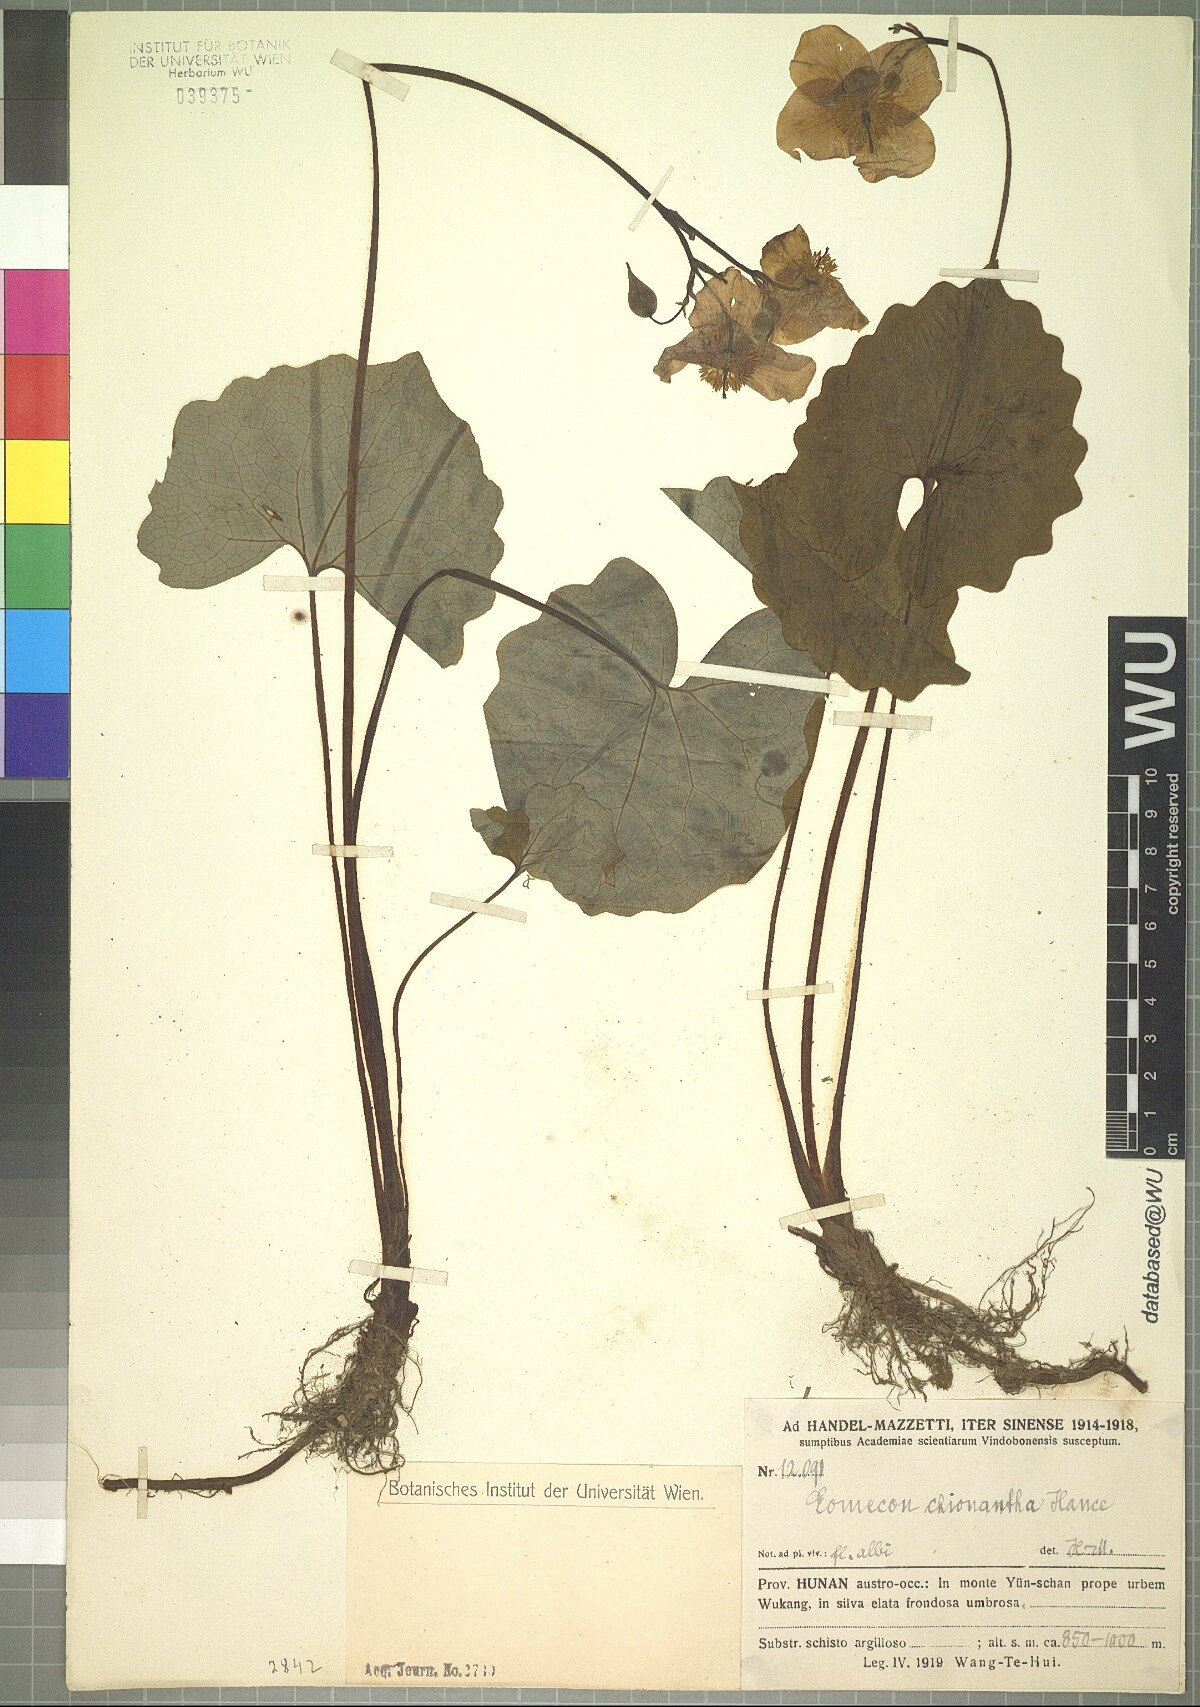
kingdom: Plantae
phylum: Tracheophyta
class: Magnoliopsida
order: Ranunculales
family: Papaveraceae
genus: Eomecon
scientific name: Eomecon chionantha
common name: Dawn-poppy
